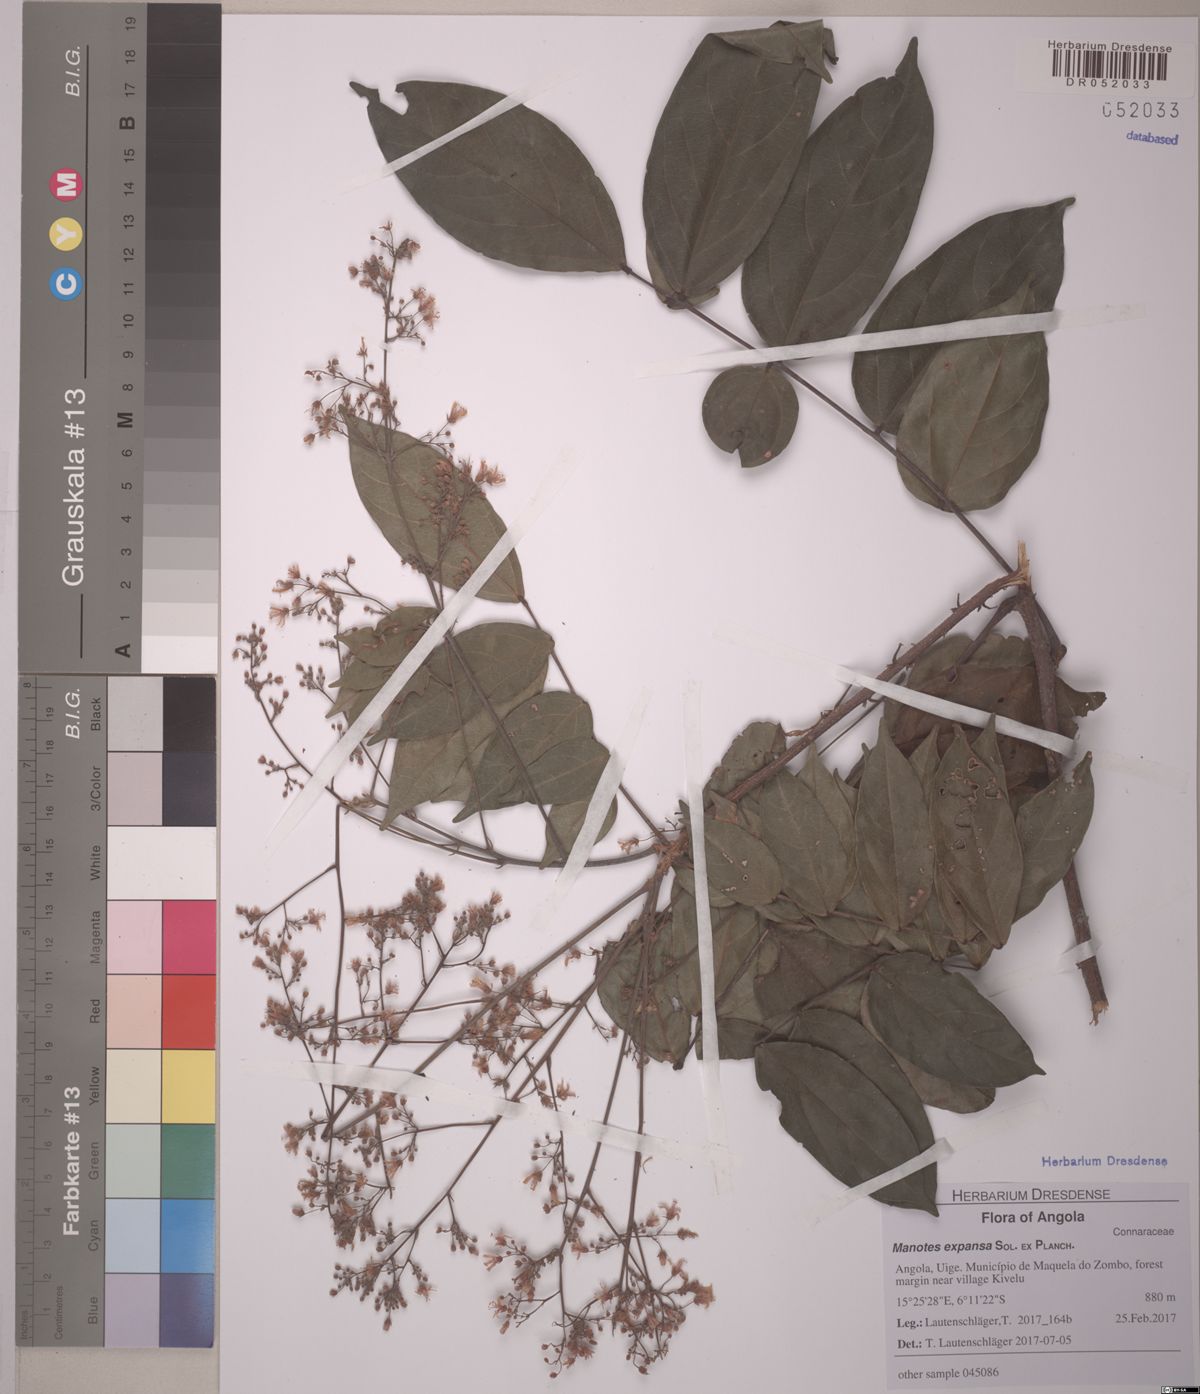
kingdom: Plantae
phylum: Tracheophyta
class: Magnoliopsida
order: Oxalidales
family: Connaraceae
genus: Manotes
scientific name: Manotes expansa
